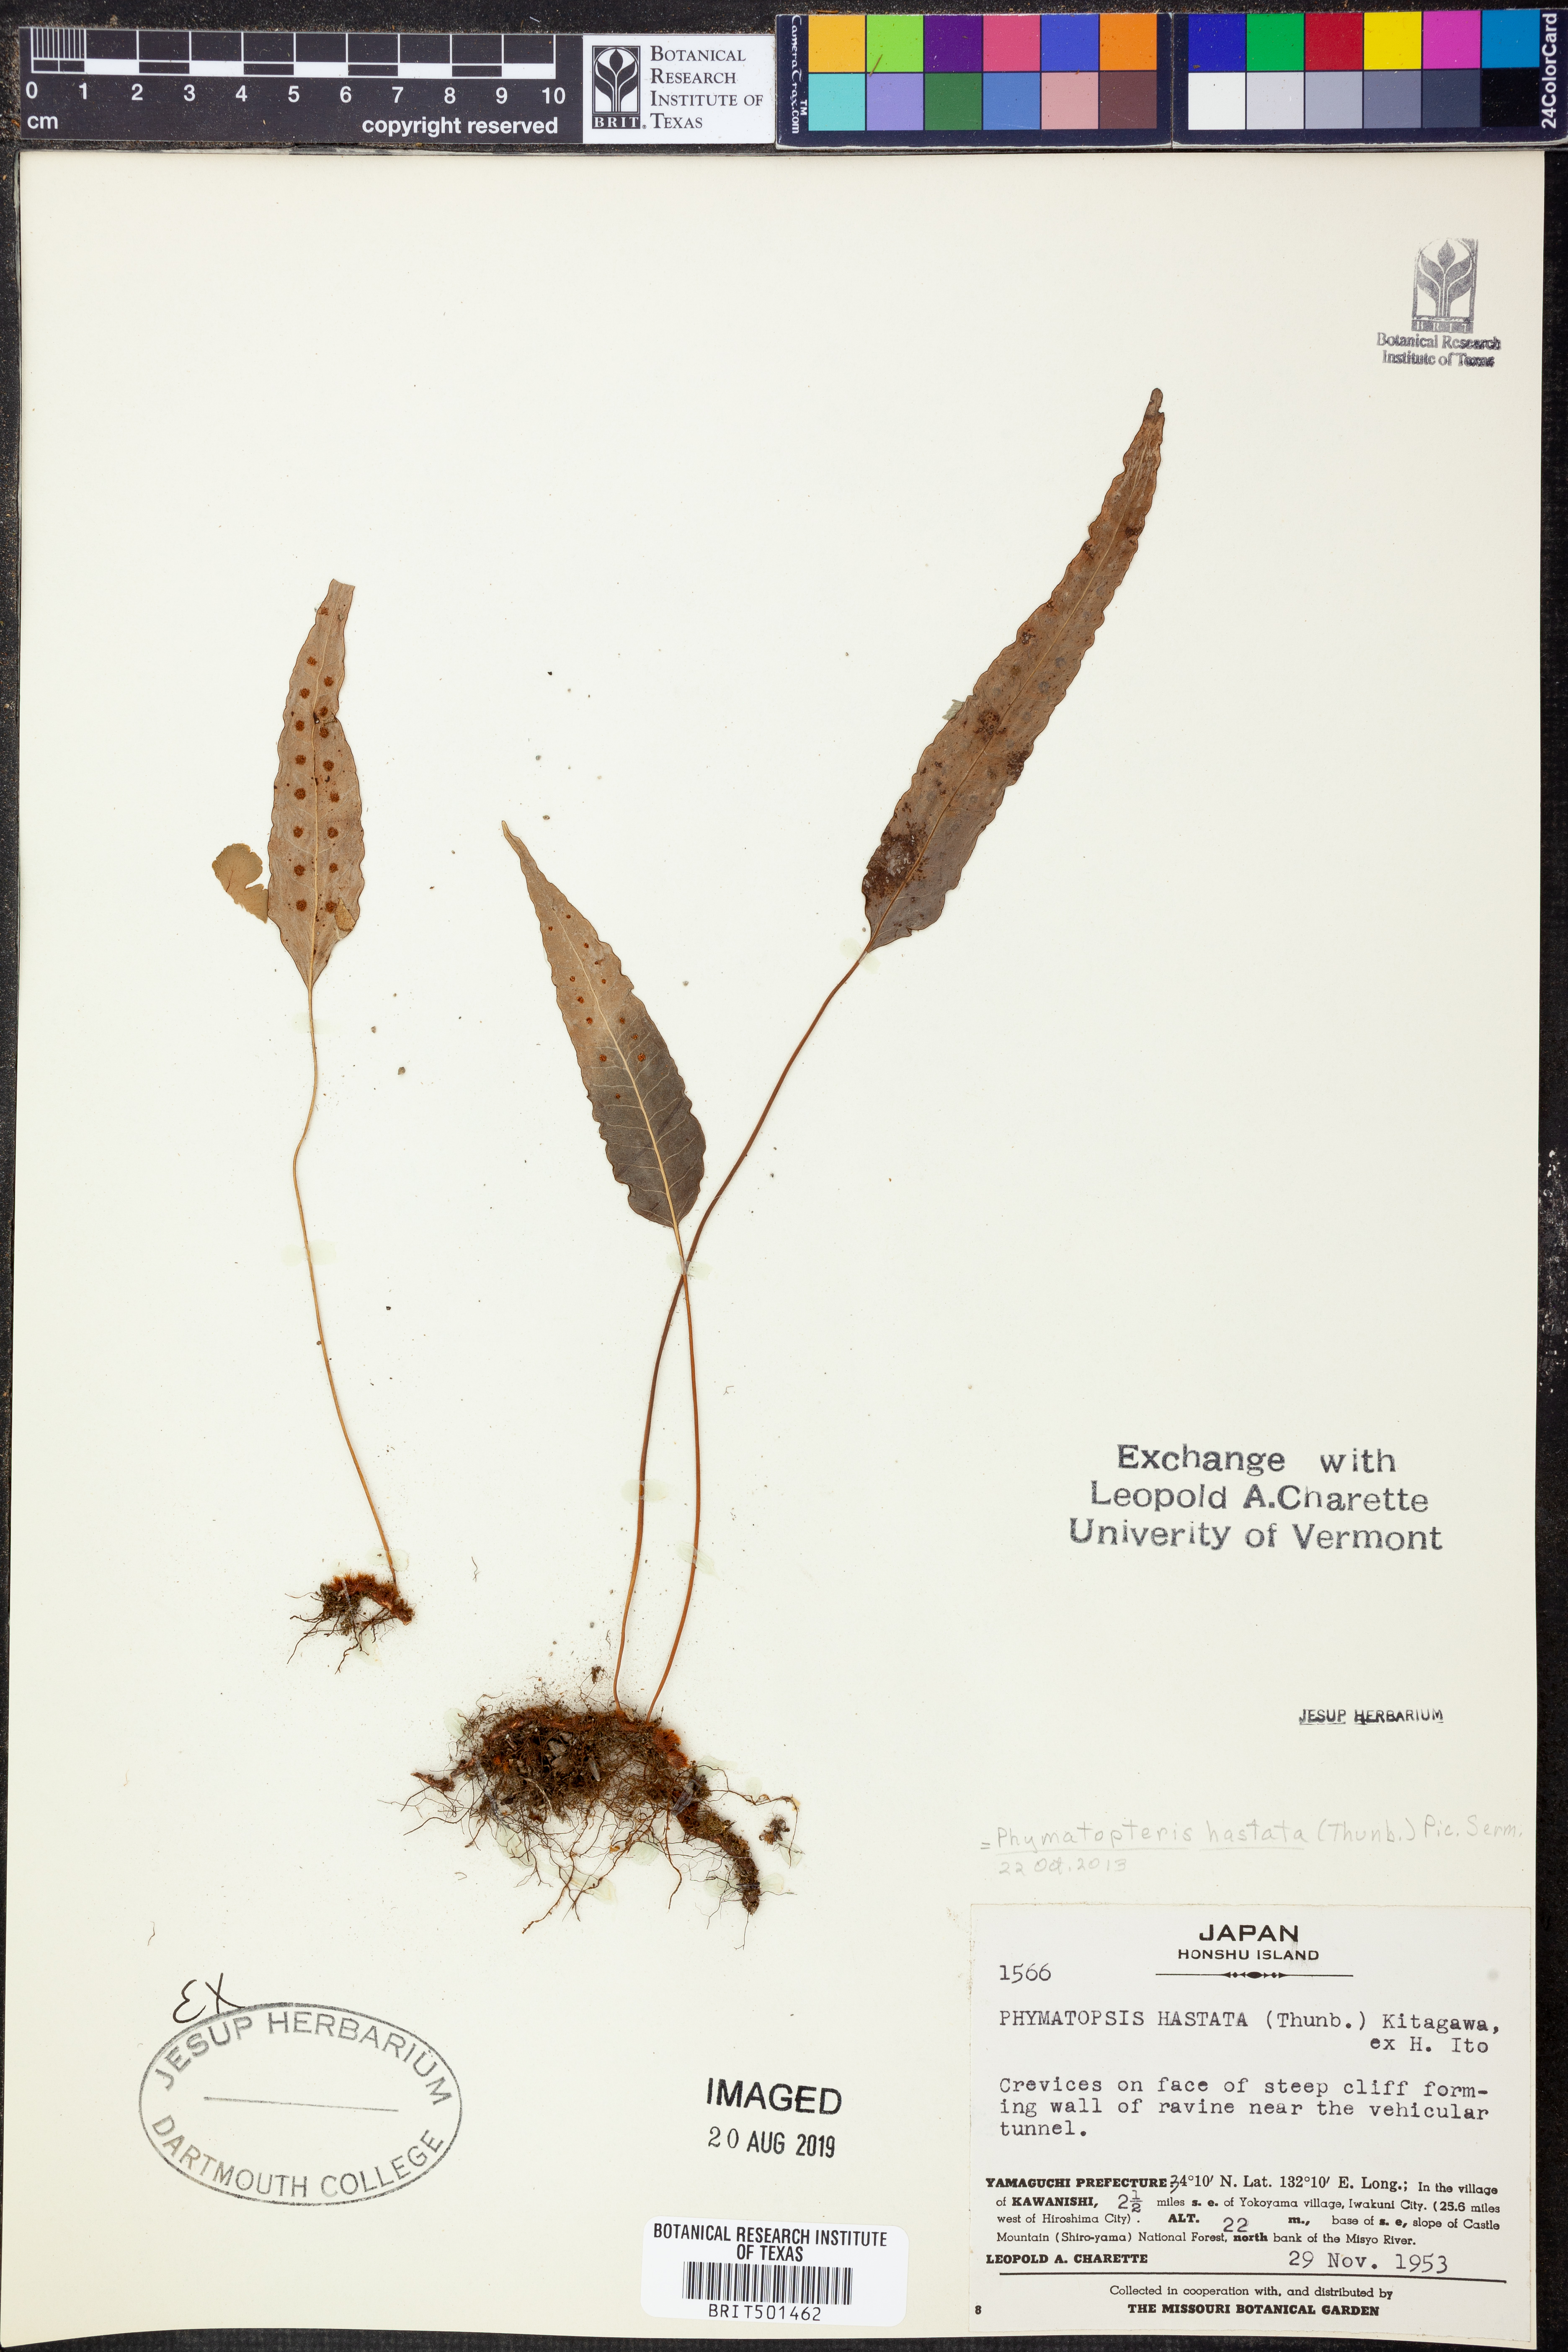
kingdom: Plantae
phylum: Tracheophyta
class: Polypodiopsida
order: Polypodiales
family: Polypodiaceae
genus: Selliguea
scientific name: Selliguea hastata
